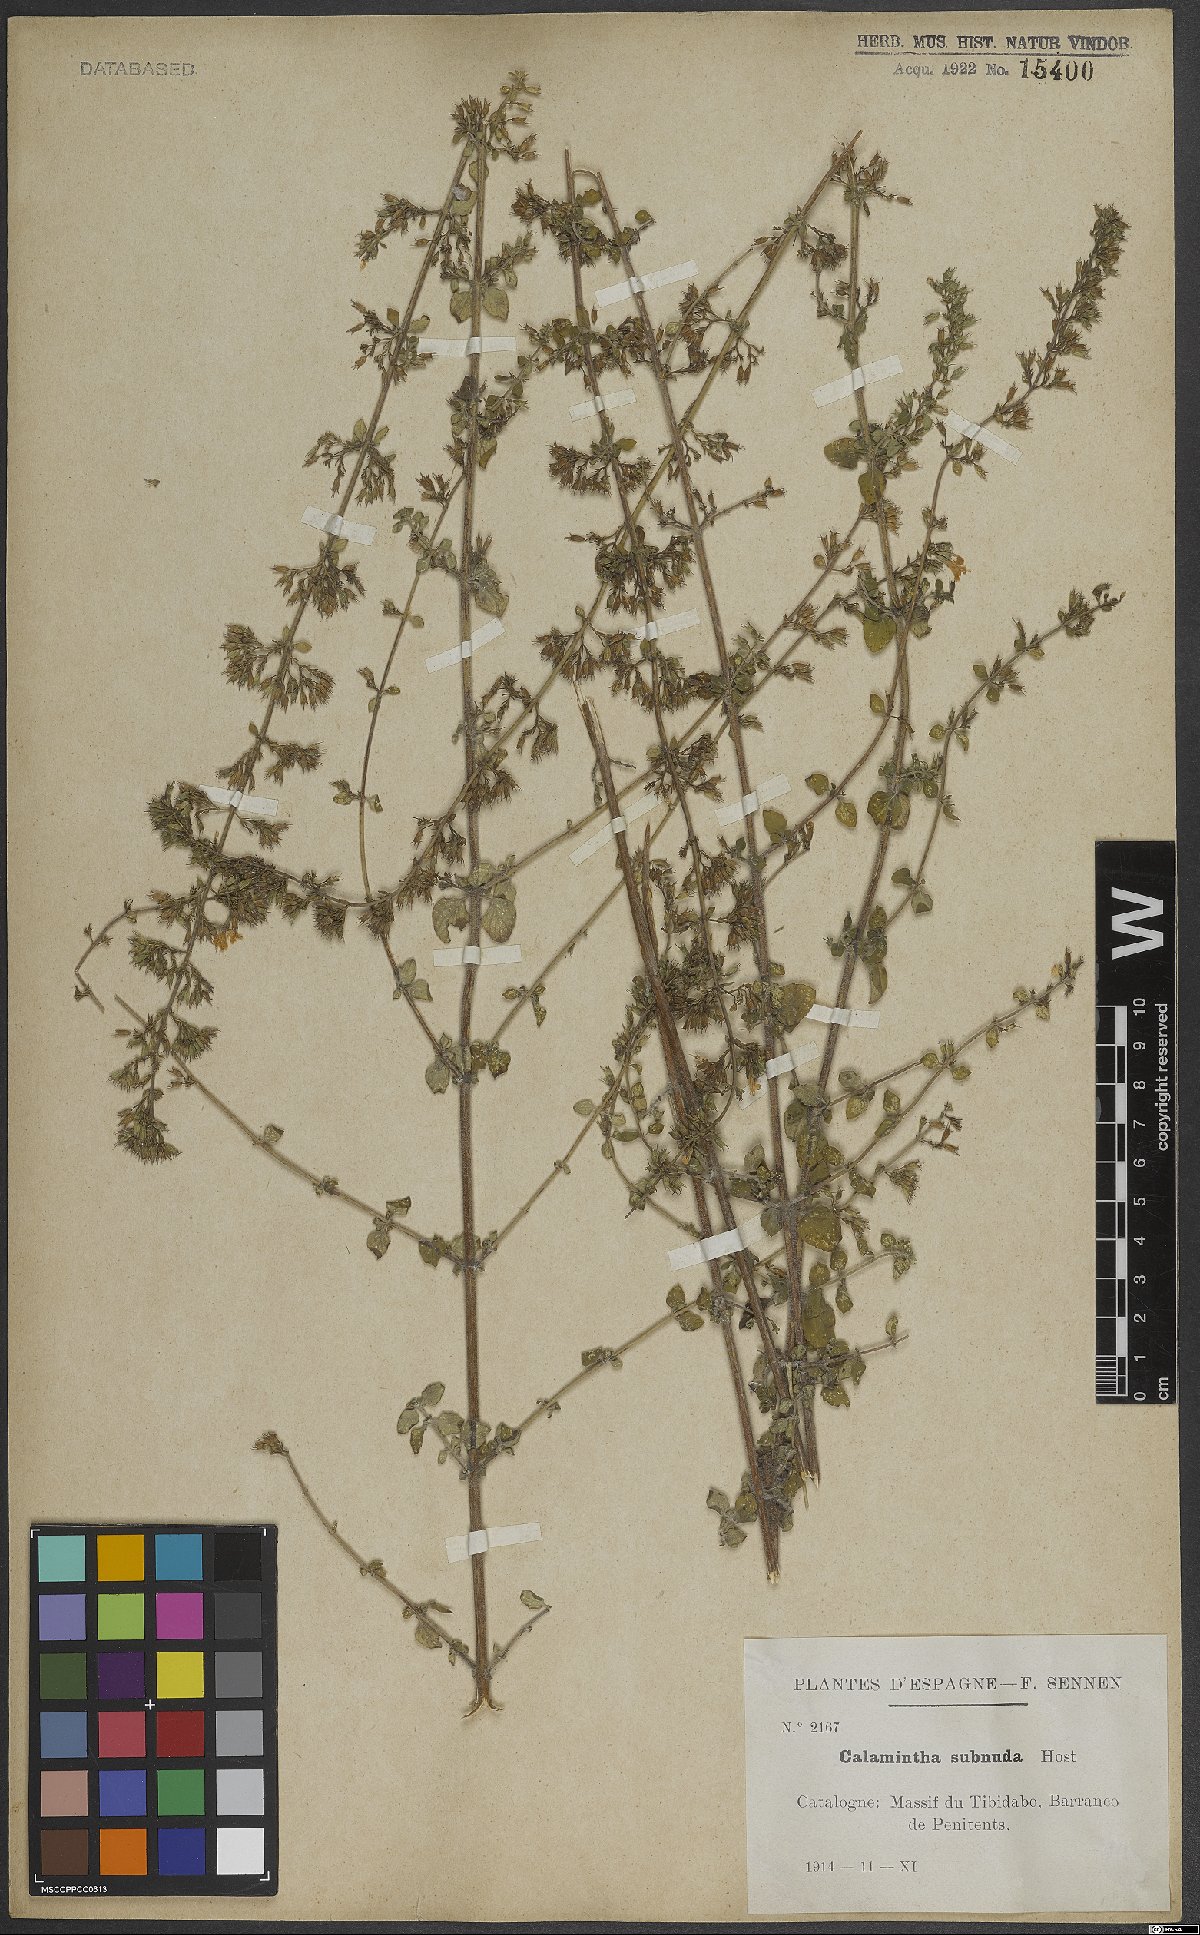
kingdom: Plantae
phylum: Tracheophyta
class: Magnoliopsida
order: Lamiales
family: Lamiaceae
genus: Clinopodium
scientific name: Clinopodium nepeta
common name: Lesser calamint
